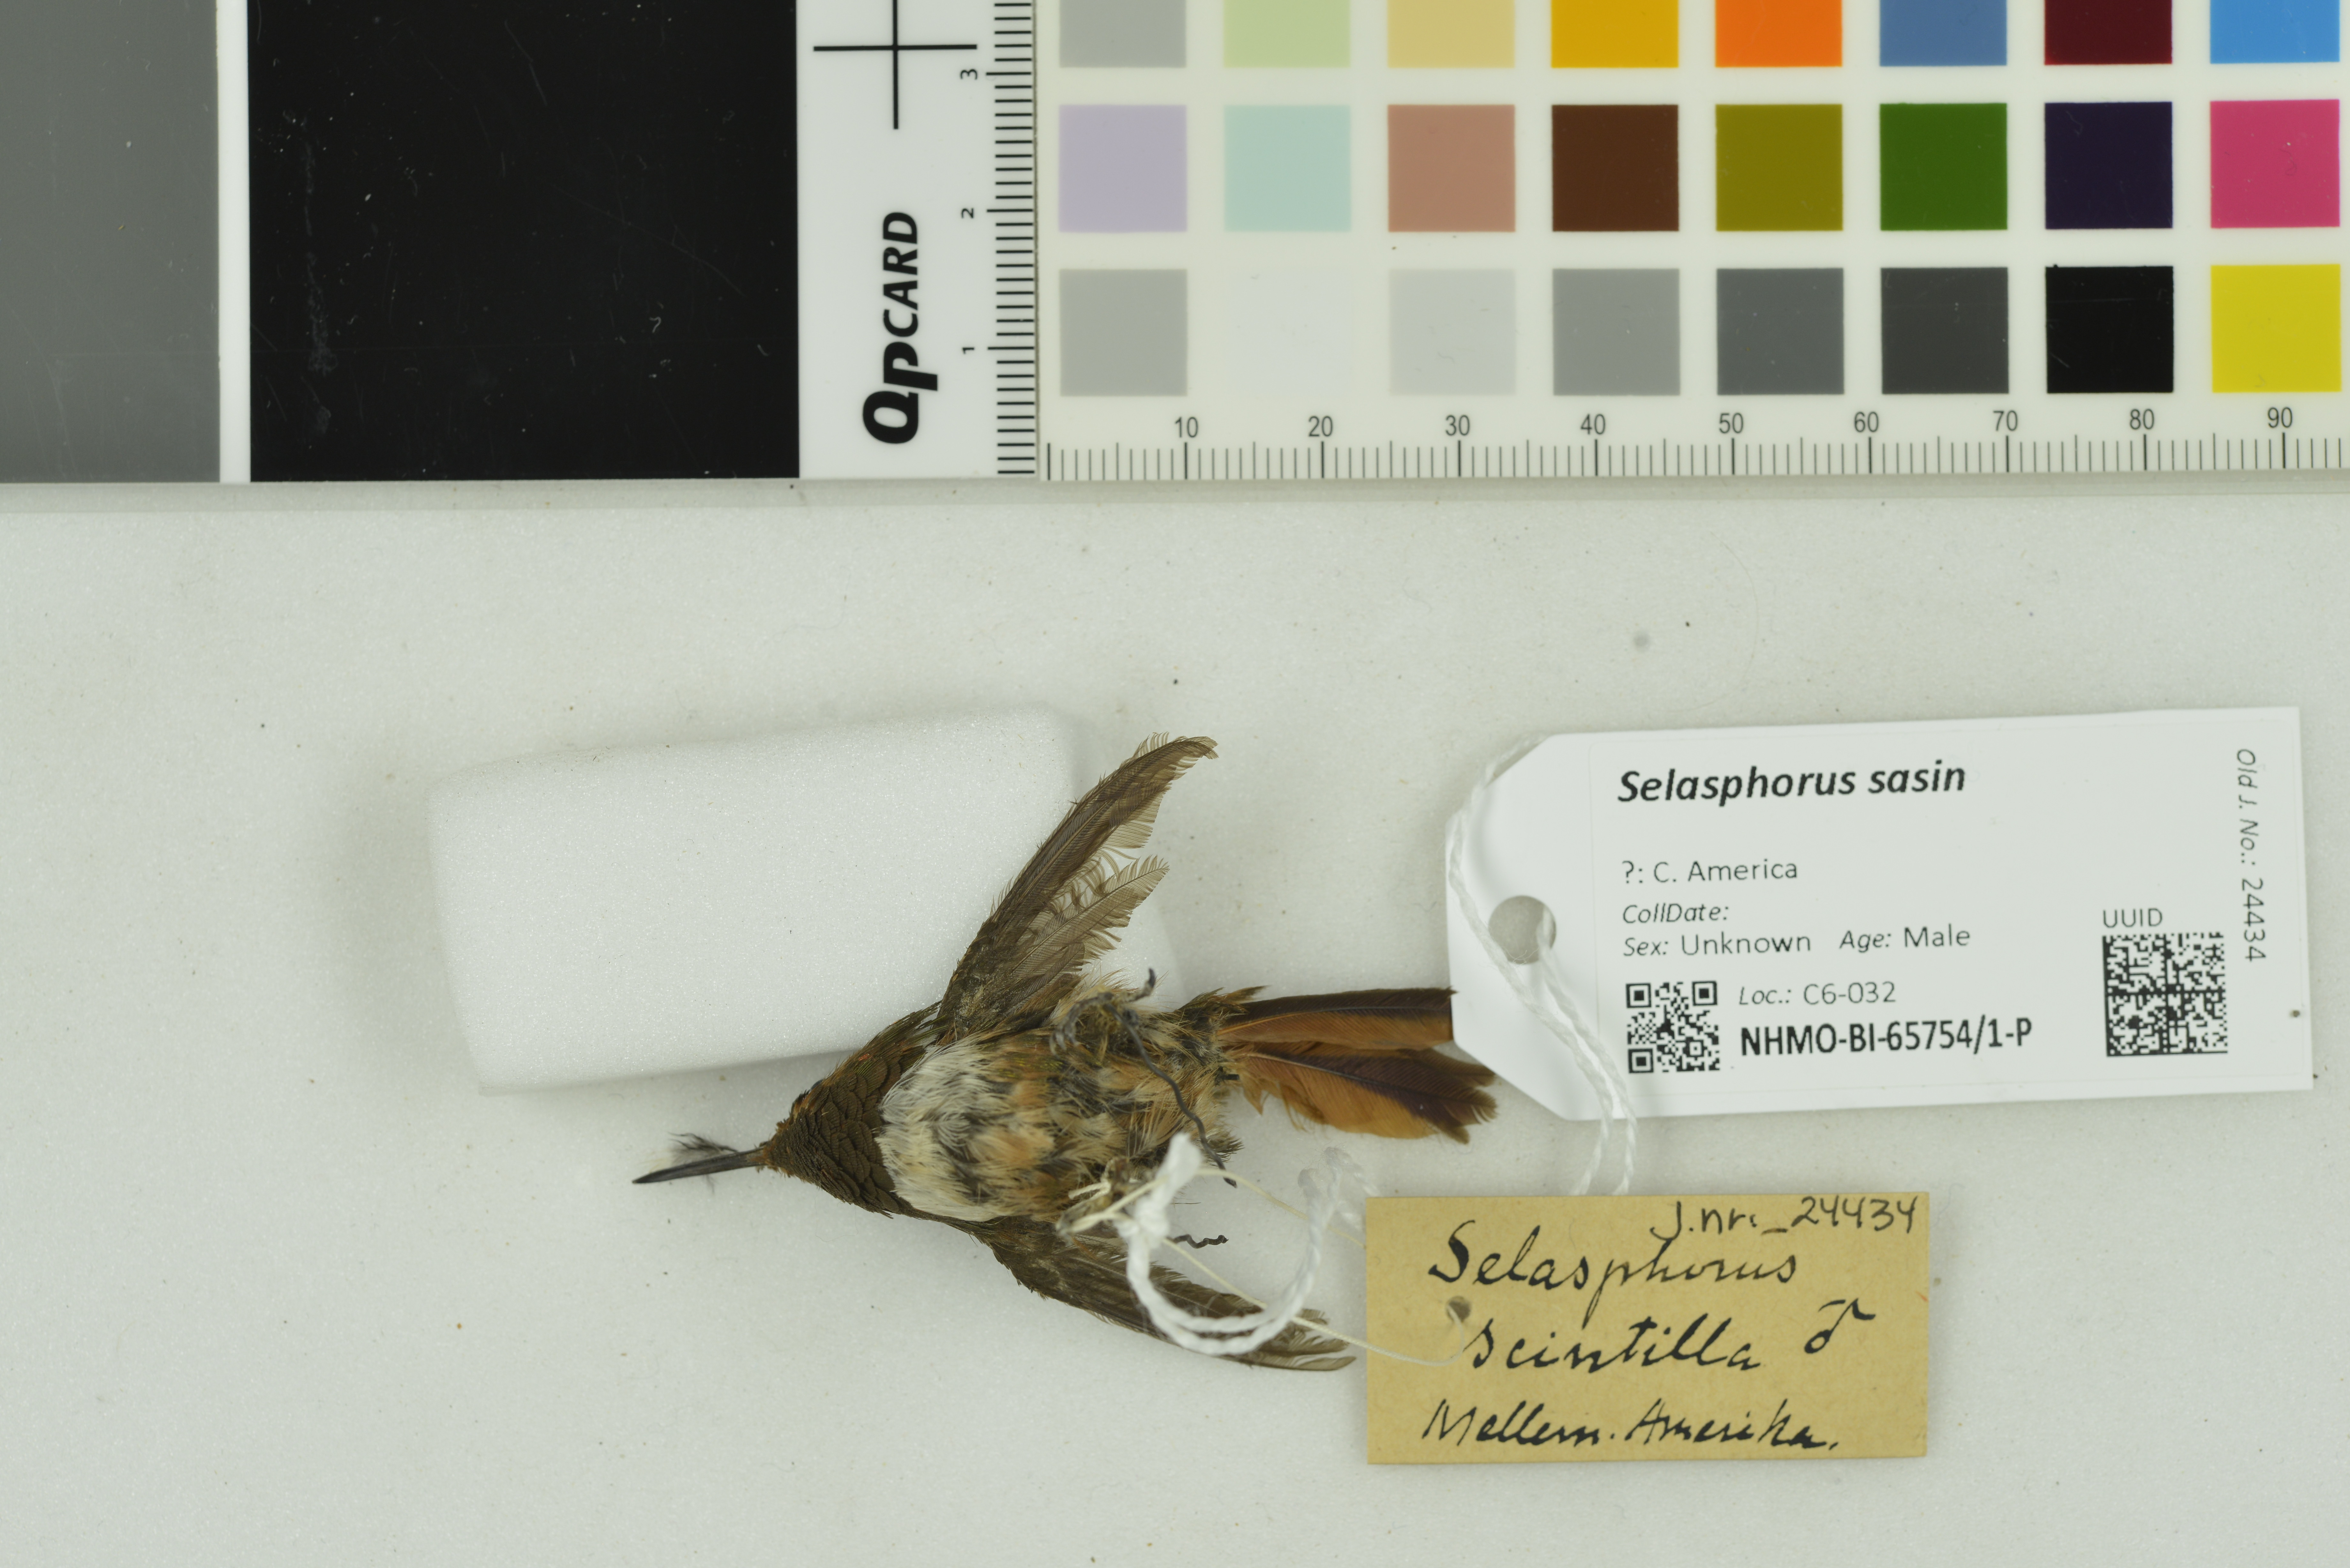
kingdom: Animalia
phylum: Chordata
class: Aves
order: Apodiformes
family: Trochilidae
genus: Selasphorus
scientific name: Selasphorus sasin
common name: Allen's hummingbird
